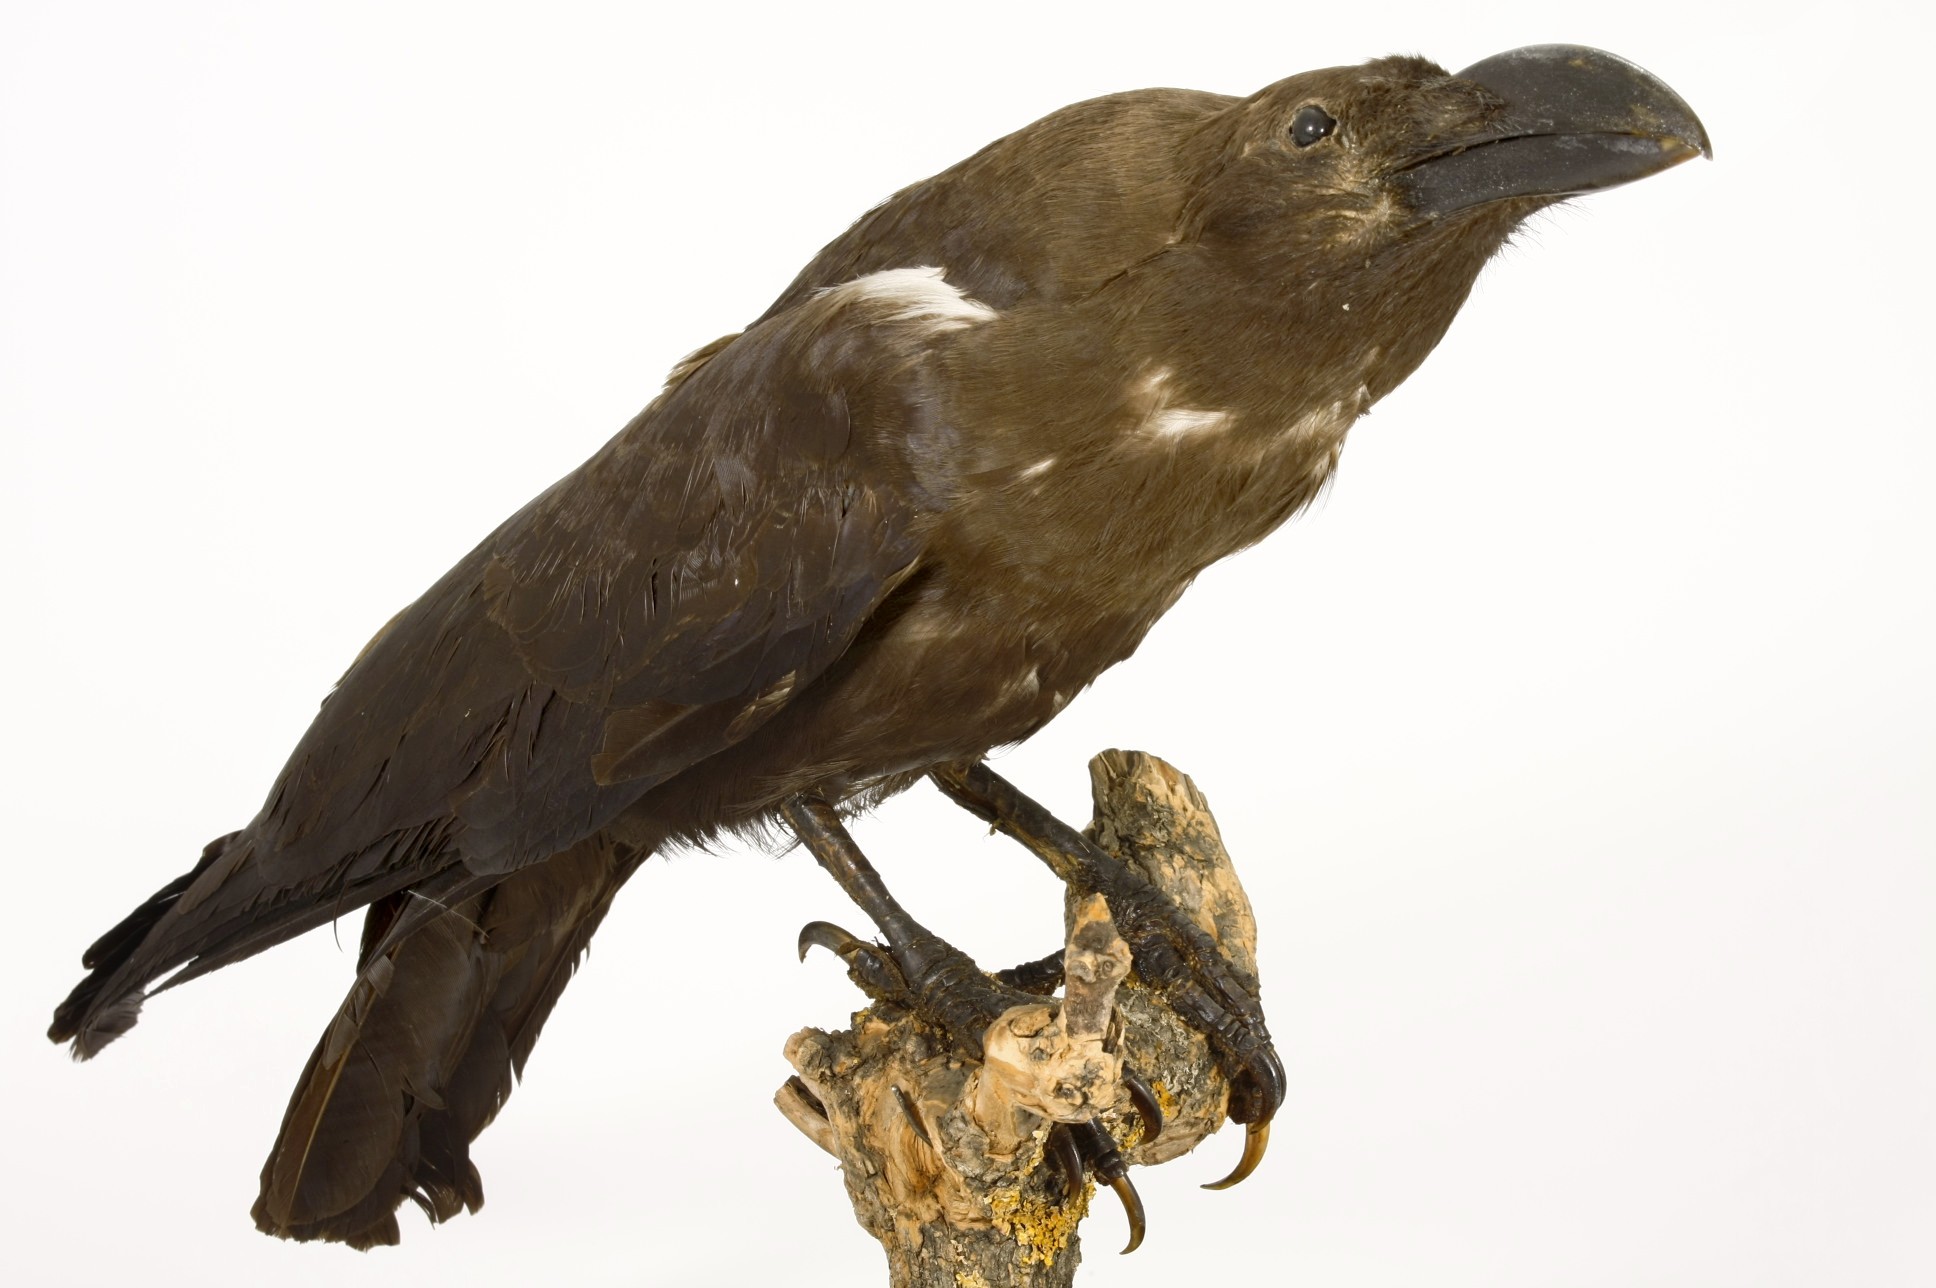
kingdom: Animalia
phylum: Chordata
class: Aves
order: Passeriformes
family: Corvidae
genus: Corvus
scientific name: Corvus edithae
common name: Somali crow
